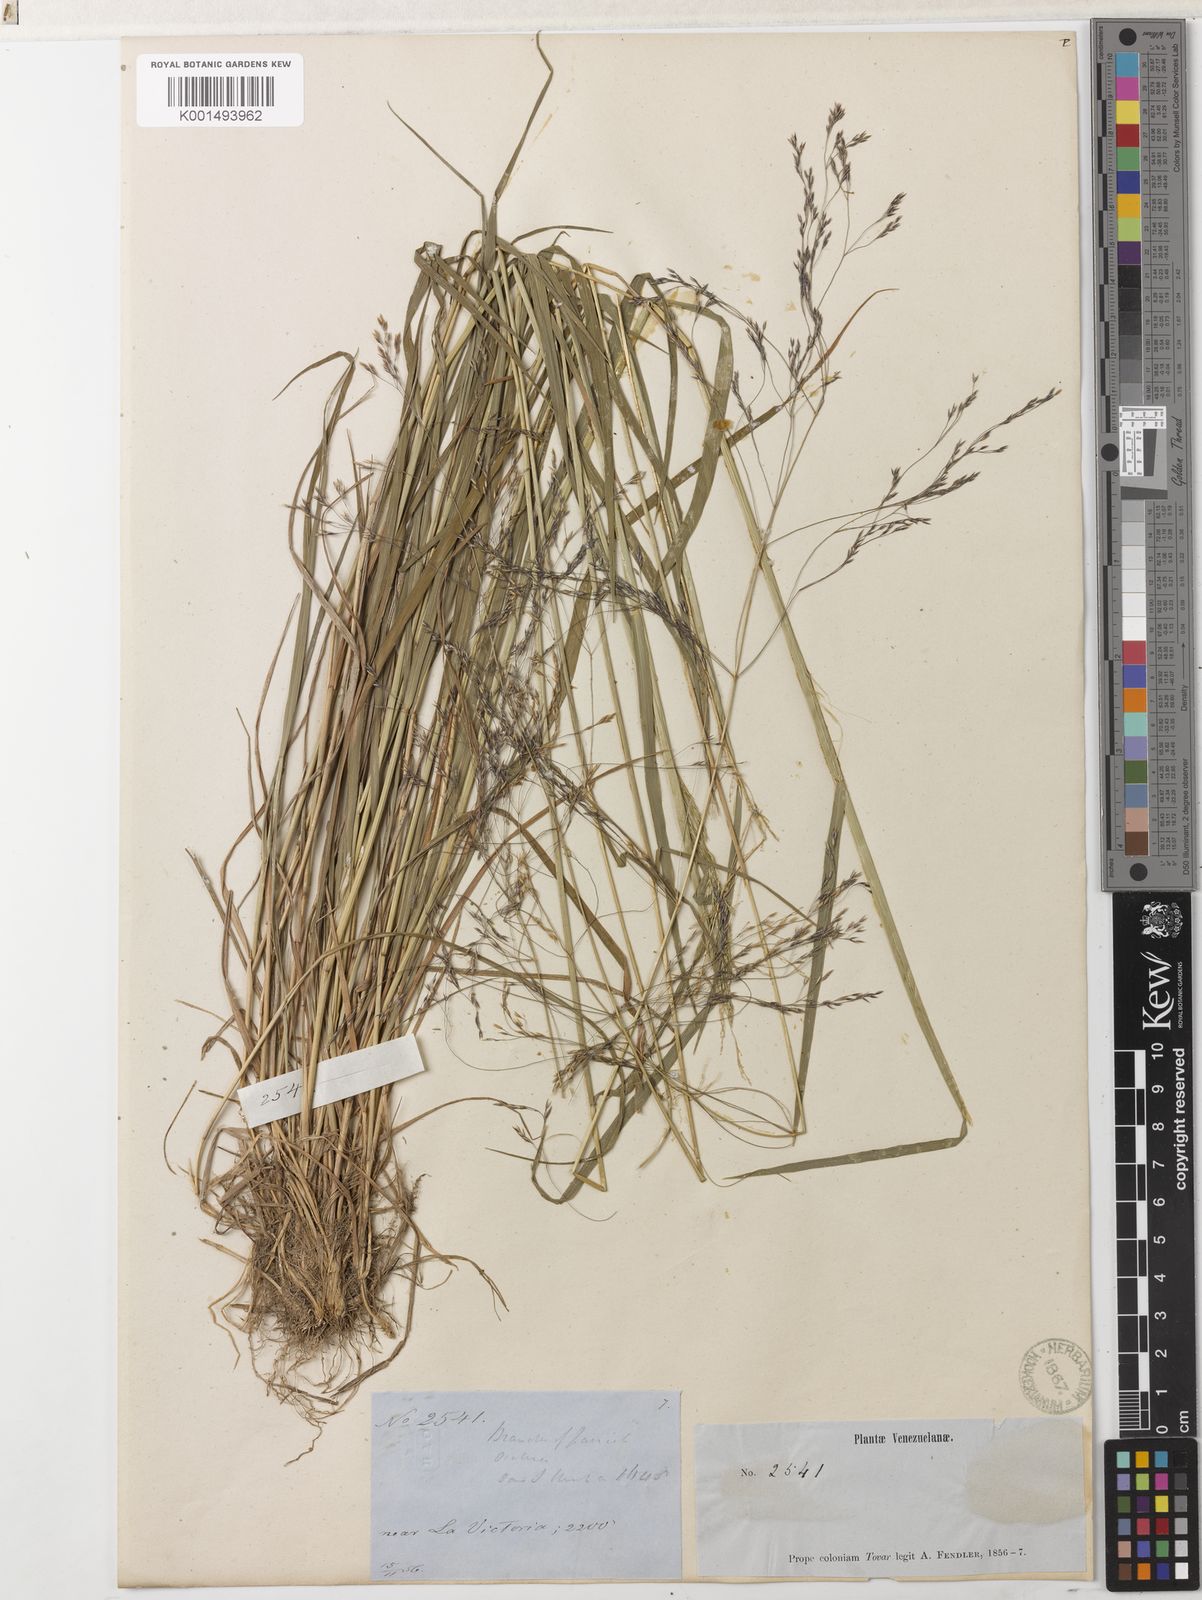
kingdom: Plantae
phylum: Tracheophyta
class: Liliopsida
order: Poales
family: Poaceae
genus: Agrostis
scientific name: Agrostis subrepens
